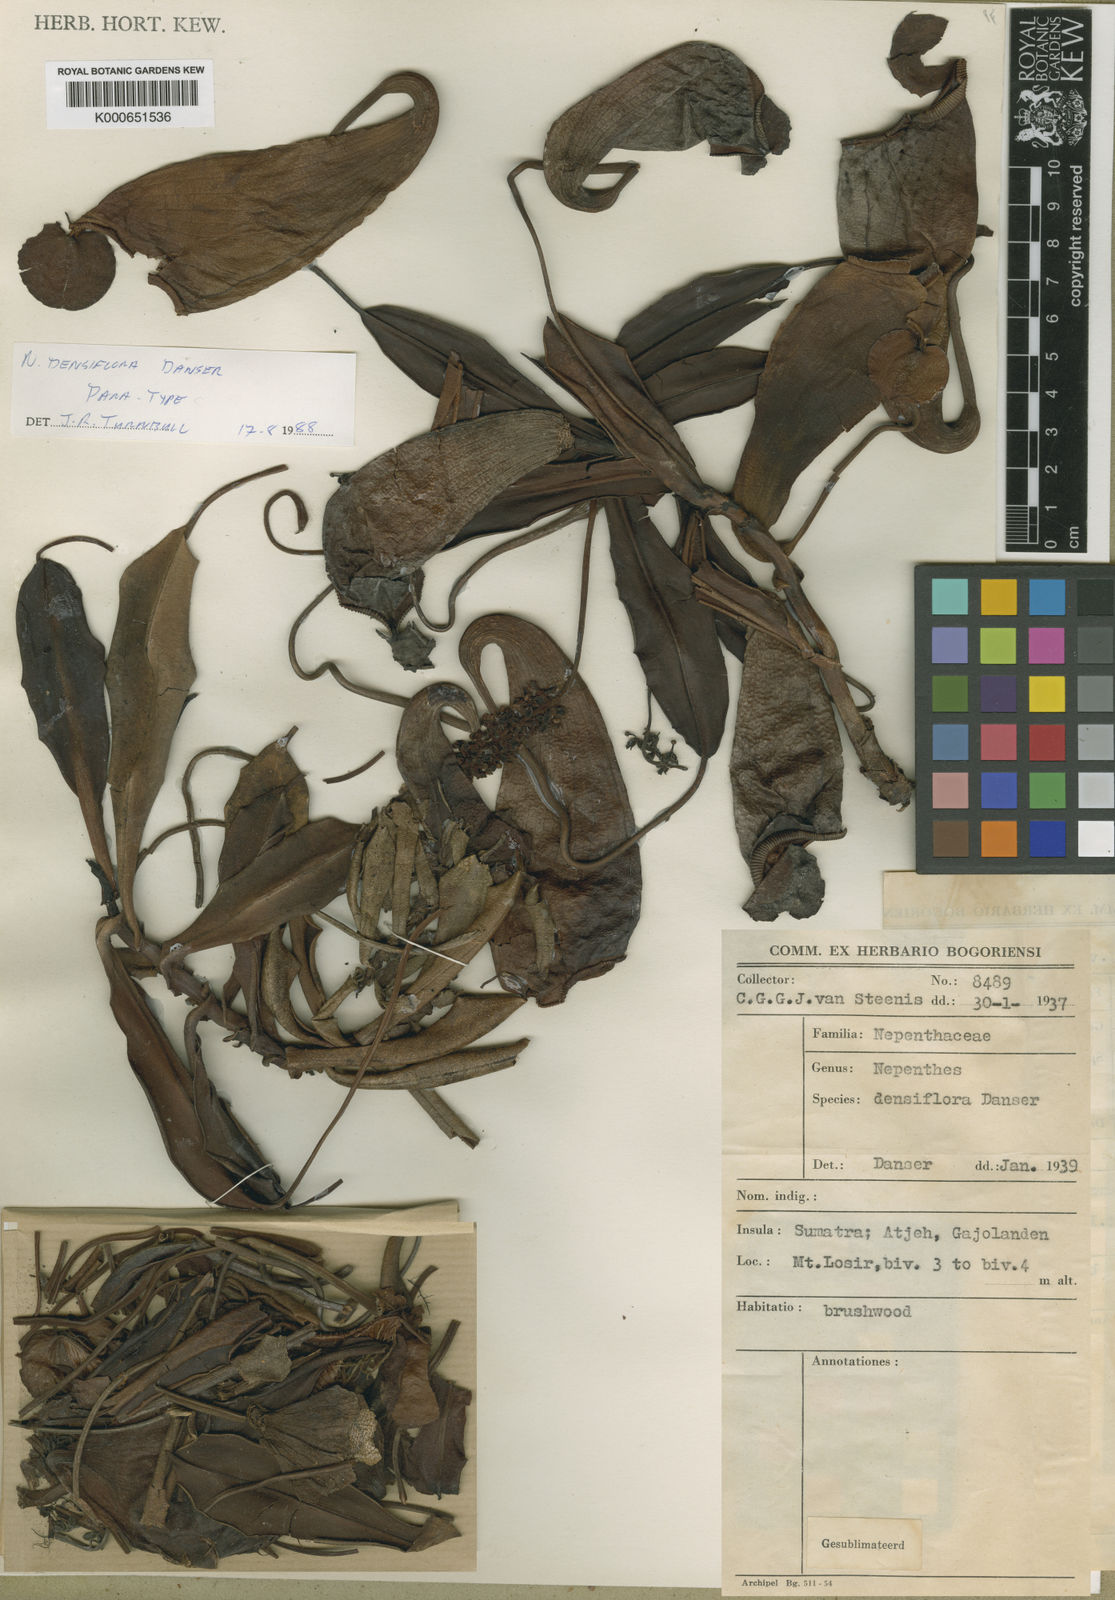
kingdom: Plantae
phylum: Tracheophyta
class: Magnoliopsida
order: Caryophyllales
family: Nepenthaceae
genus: Nepenthes
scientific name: Nepenthes densiflora
